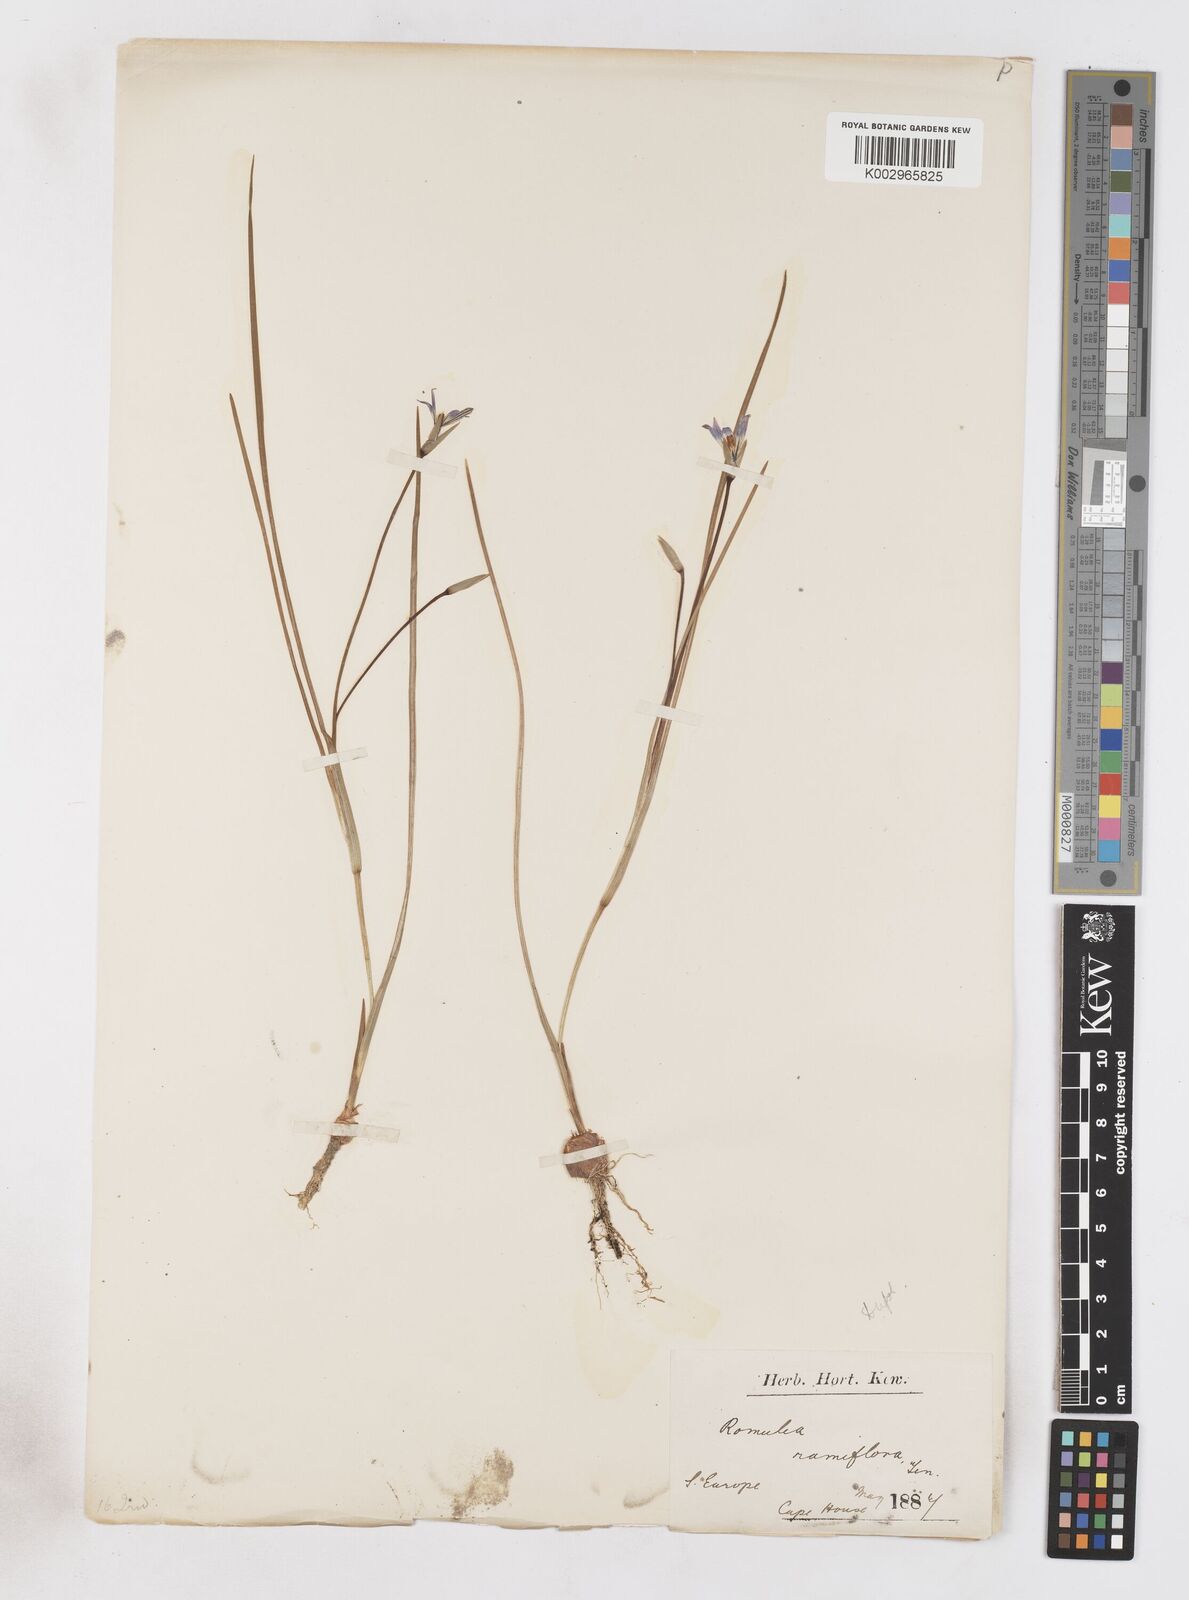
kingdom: Plantae
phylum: Tracheophyta
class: Liliopsida
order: Asparagales
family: Iridaceae
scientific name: Iridaceae
